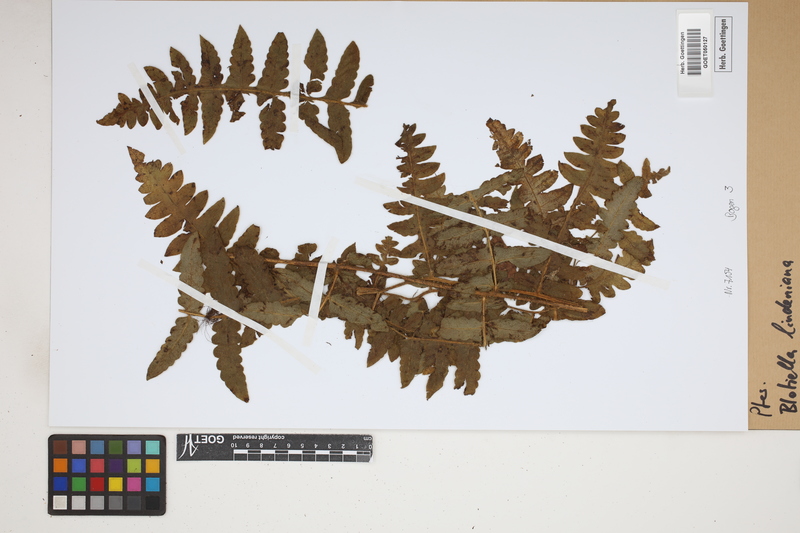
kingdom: Plantae
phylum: Tracheophyta
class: Polypodiopsida
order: Polypodiales
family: Dennstaedtiaceae
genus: Blotiella
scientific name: Blotiella aurita
